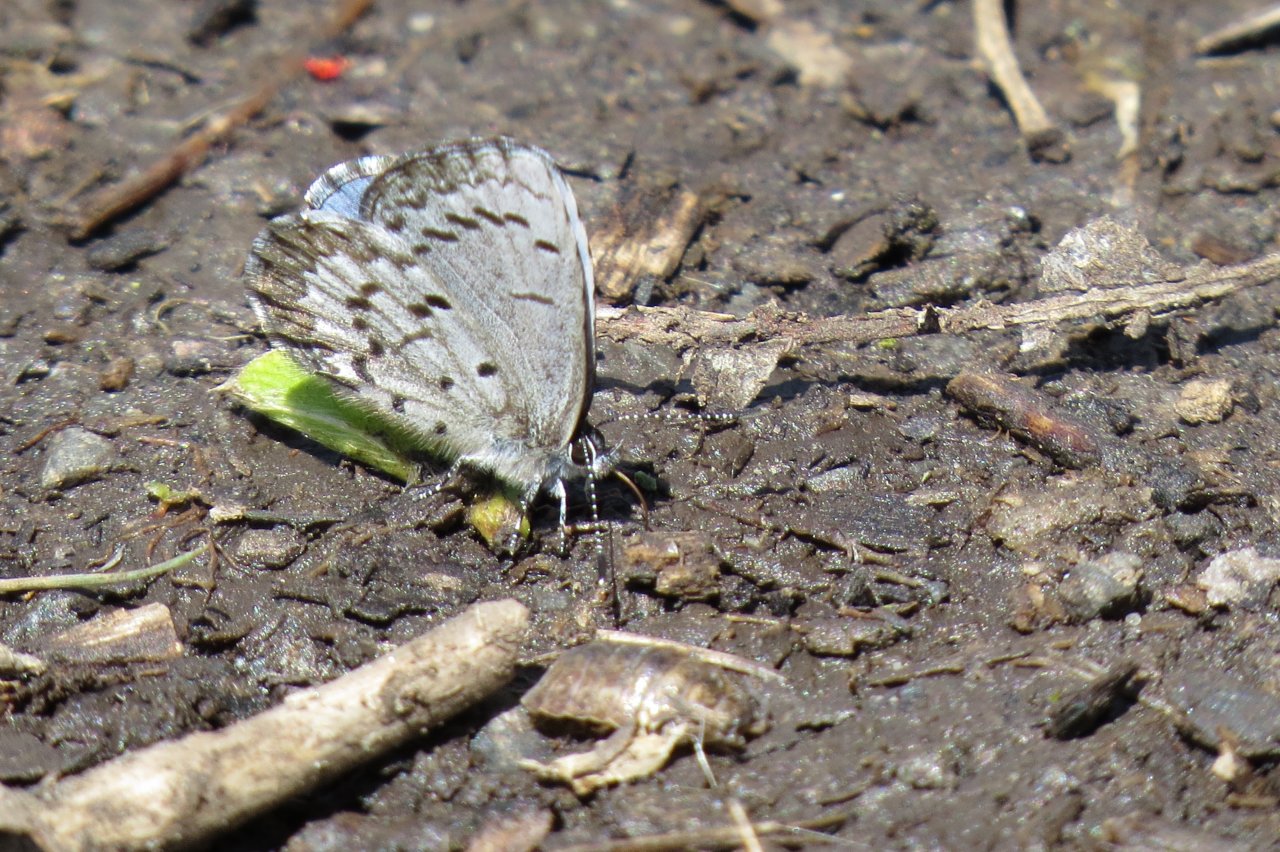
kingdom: Animalia
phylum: Arthropoda
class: Insecta
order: Lepidoptera
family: Lycaenidae
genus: Celastrina
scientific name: Celastrina lucia
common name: Northern Spring Azure
